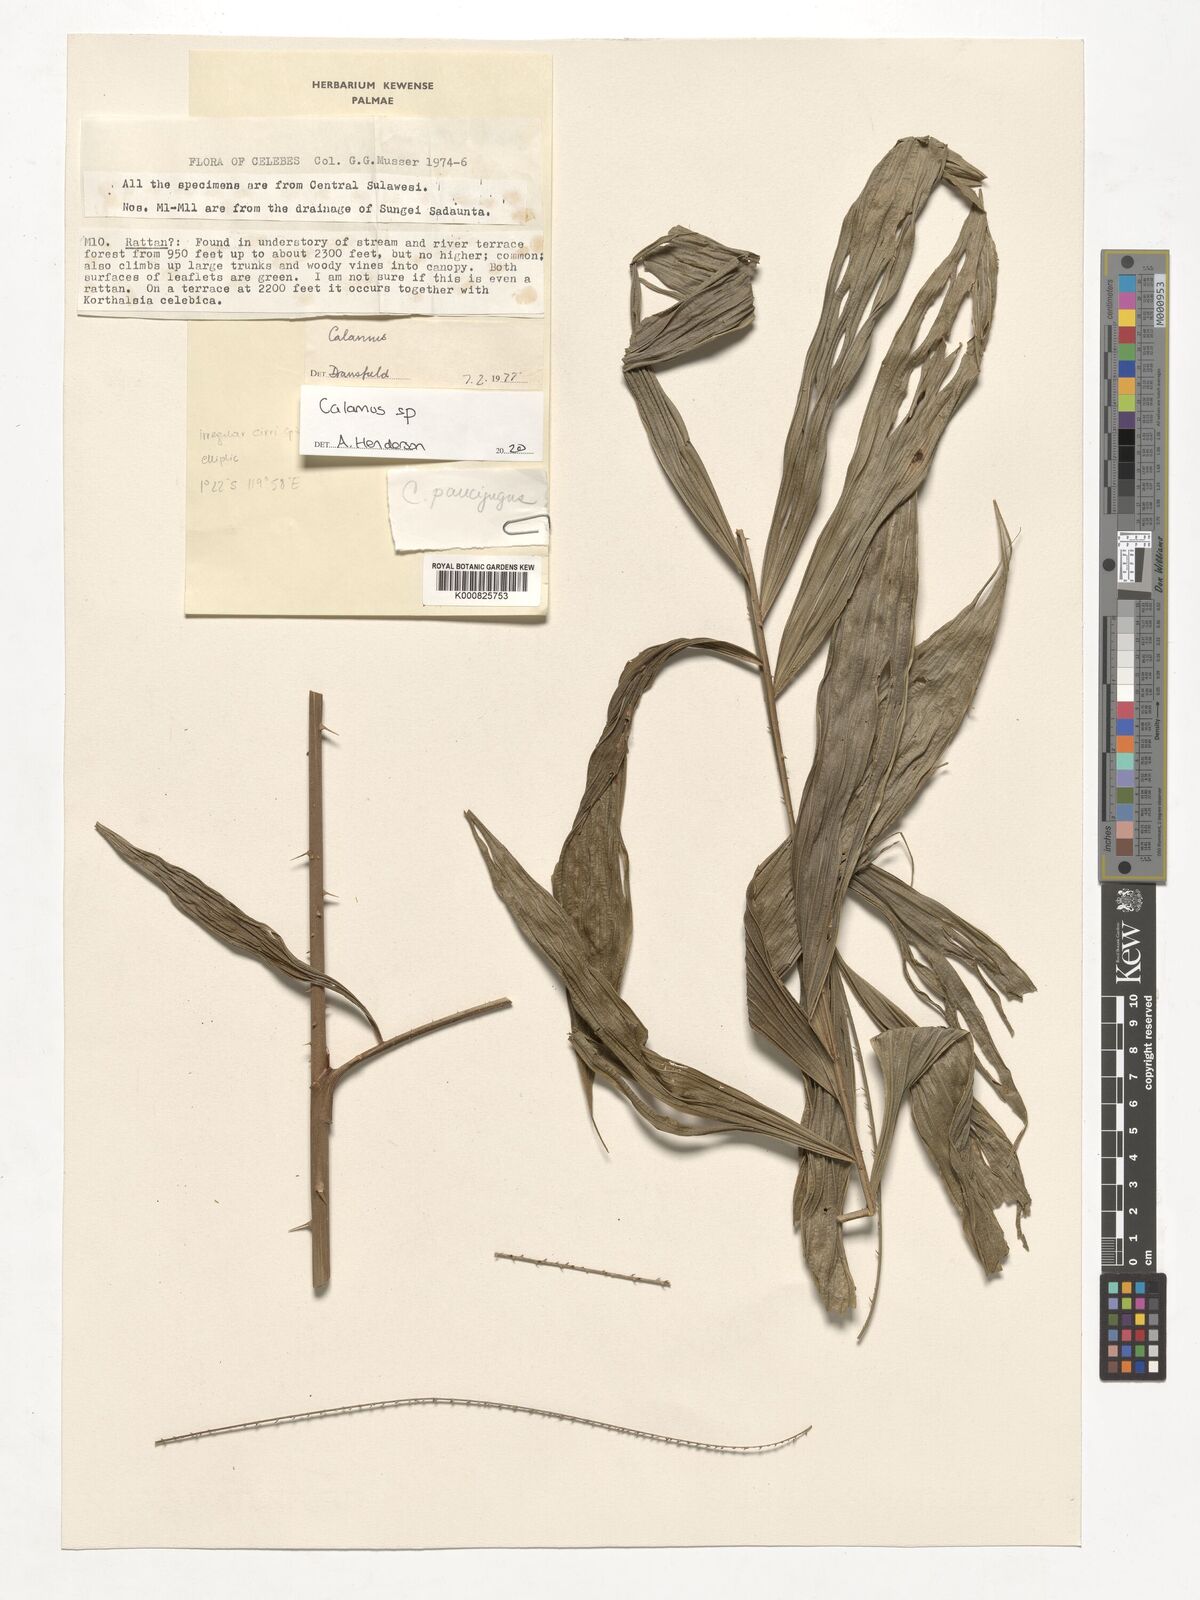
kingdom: Plantae
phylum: Tracheophyta
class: Liliopsida
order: Arecales
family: Arecaceae
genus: Calamus
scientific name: Calamus
